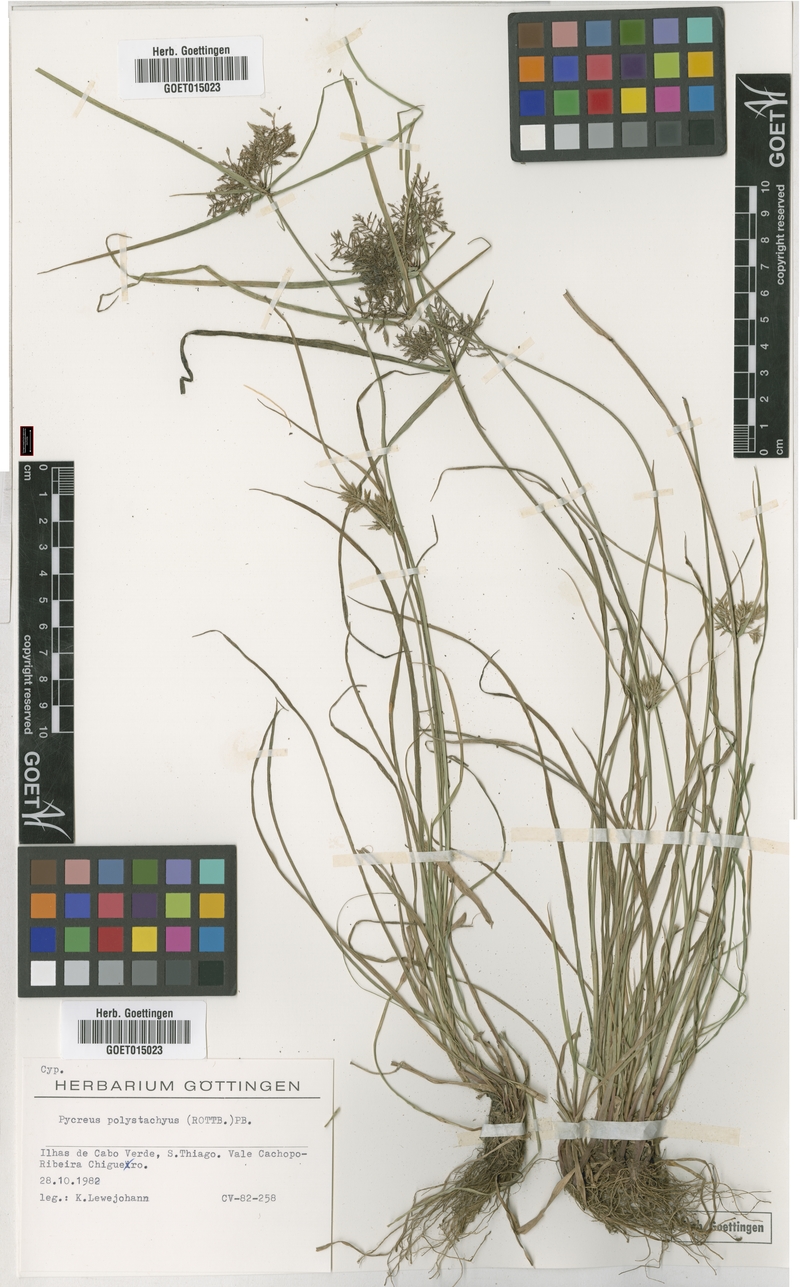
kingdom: Plantae
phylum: Tracheophyta
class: Liliopsida
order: Poales
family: Cyperaceae
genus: Cyperus
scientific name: Cyperus polystachyos
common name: Bunchy flat sedge
